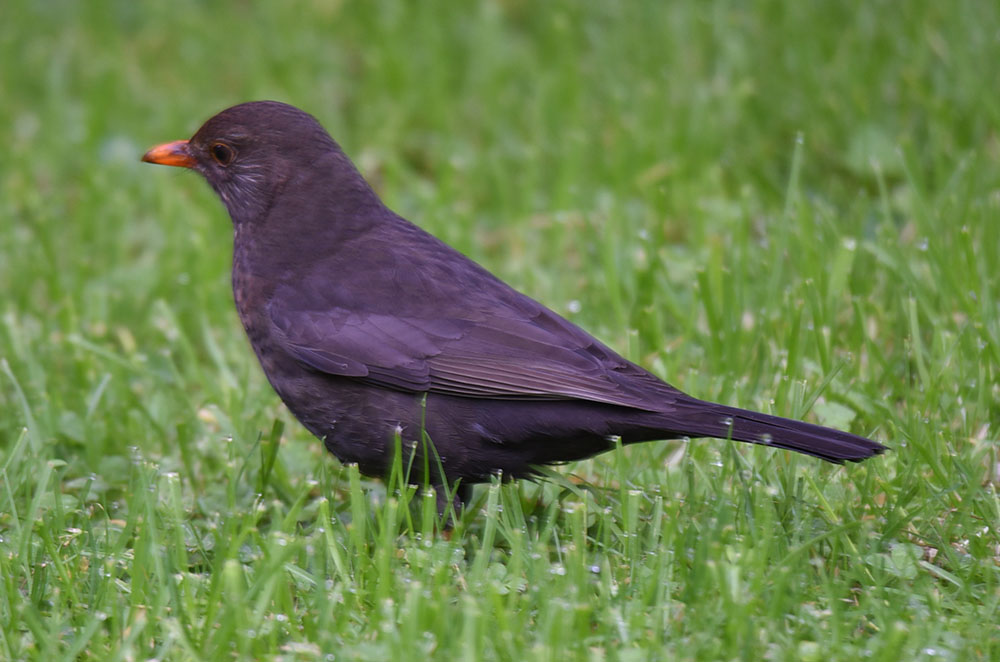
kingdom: Animalia
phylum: Chordata
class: Aves
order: Passeriformes
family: Turdidae
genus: Turdus
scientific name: Turdus merula
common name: Common blackbird
